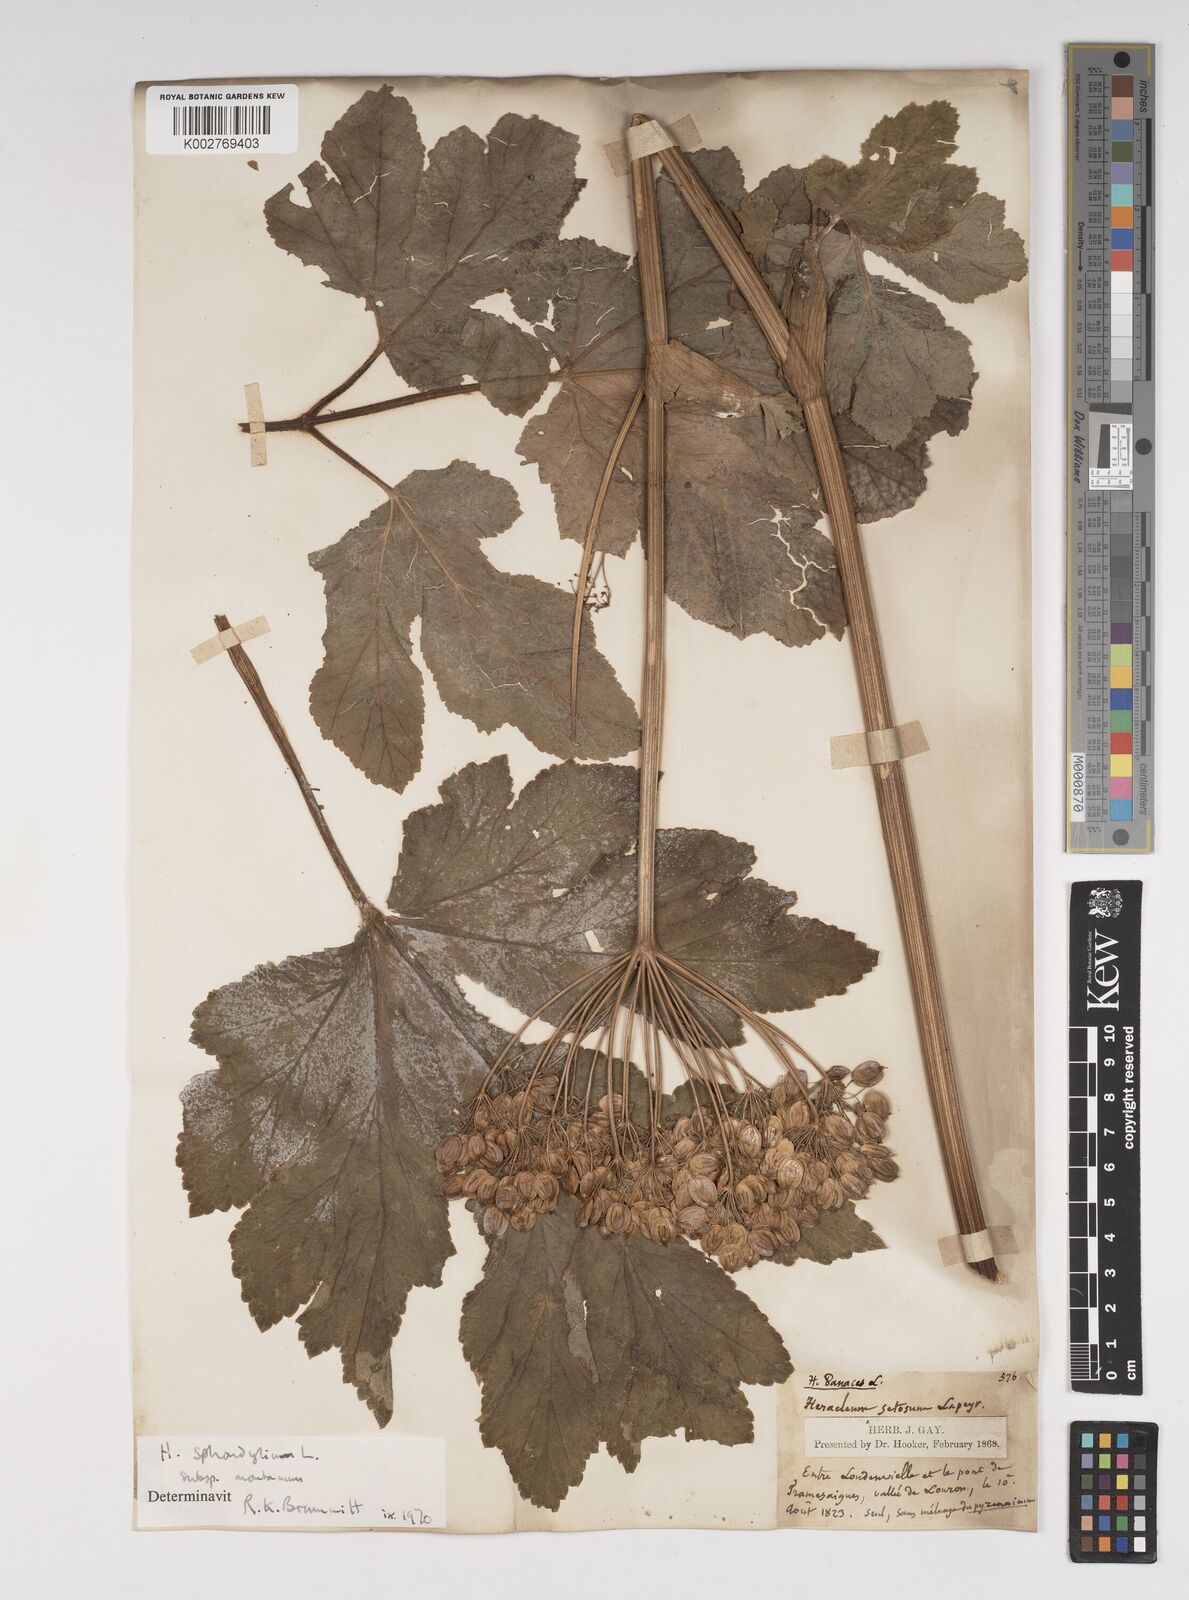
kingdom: Plantae
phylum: Tracheophyta
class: Magnoliopsida
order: Apiales
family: Apiaceae
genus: Heracleum
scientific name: Heracleum sphondylium
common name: Hogweed
